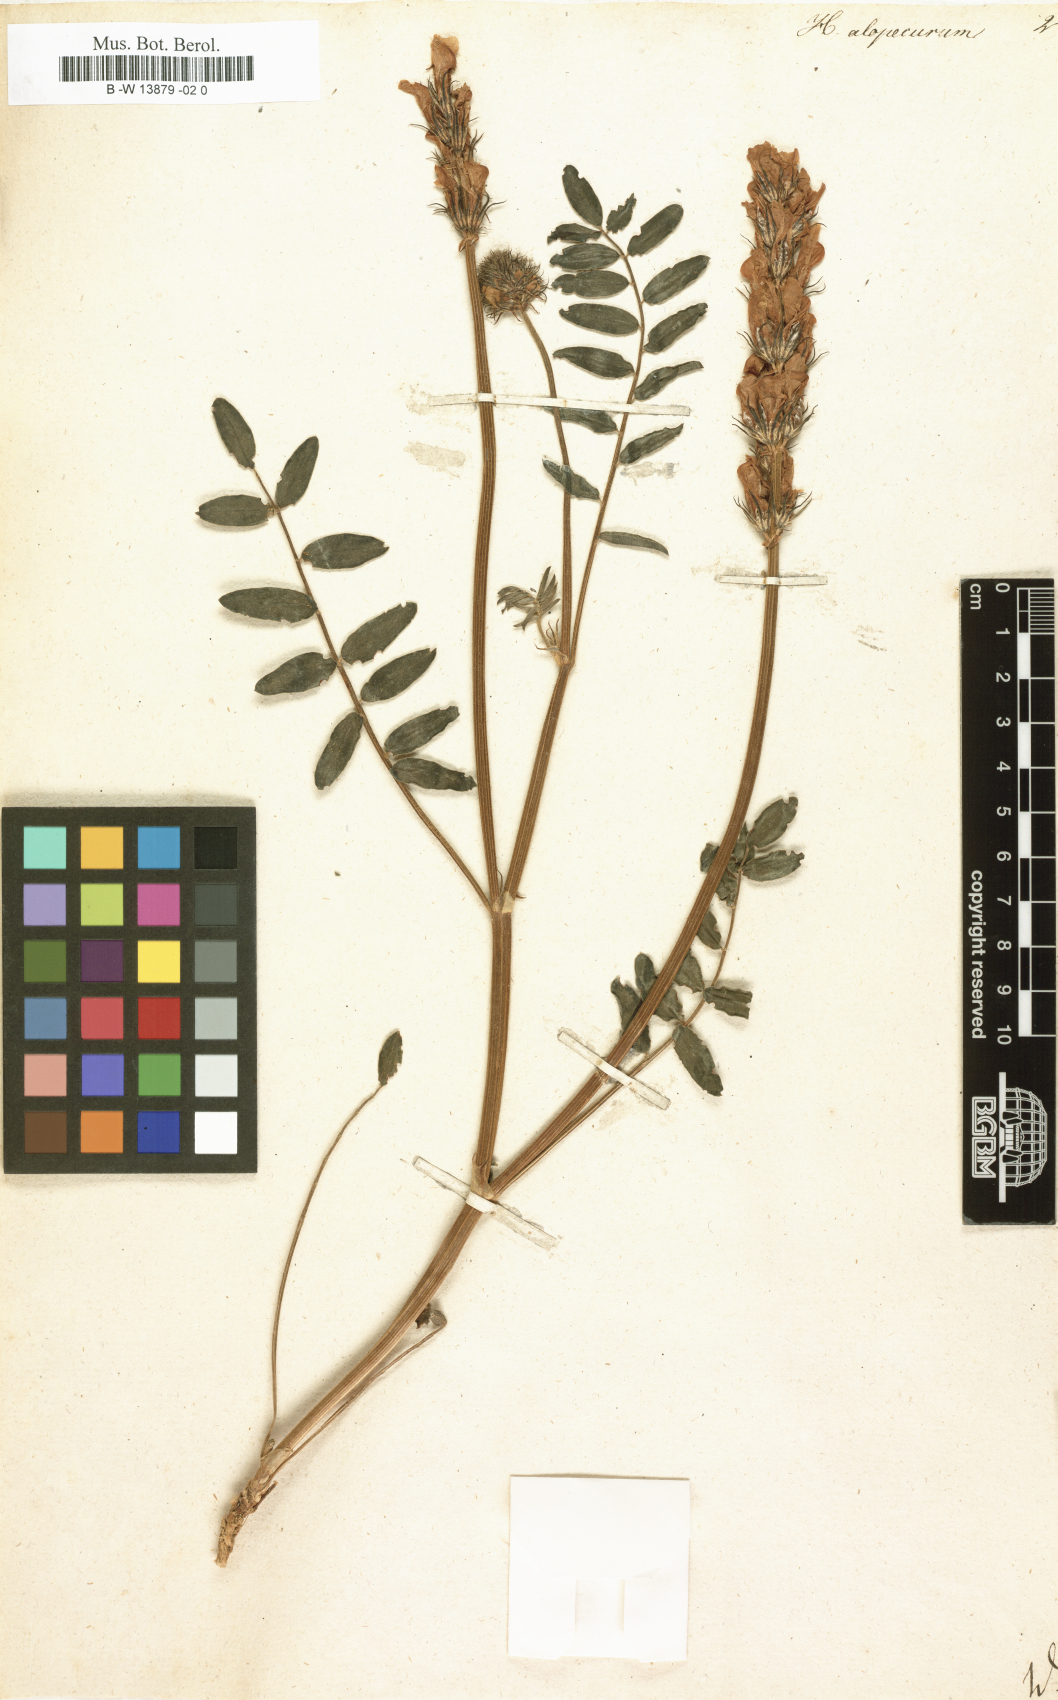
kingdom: Plantae
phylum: Tracheophyta
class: Magnoliopsida
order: Fabales
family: Fabaceae
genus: Hedysarum
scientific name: Hedysarum
